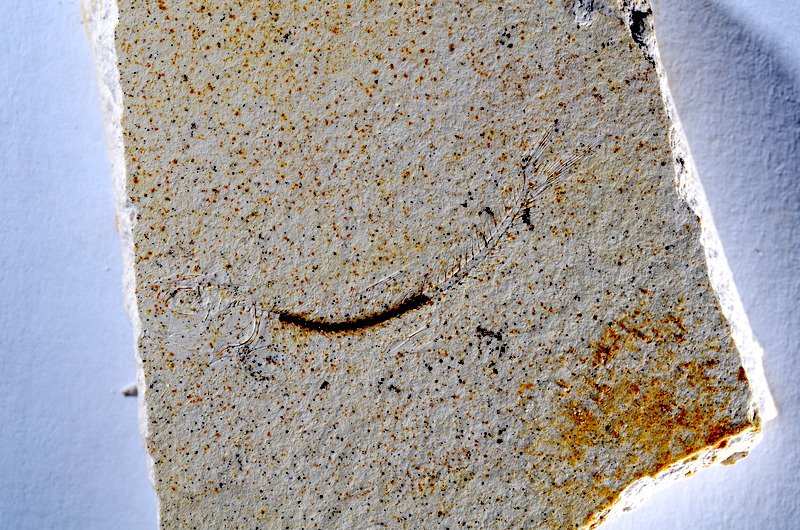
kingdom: Animalia
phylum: Chordata
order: Salmoniformes
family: Orthogonikleithridae
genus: Orthogonikleithrus
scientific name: Orthogonikleithrus hoelli
